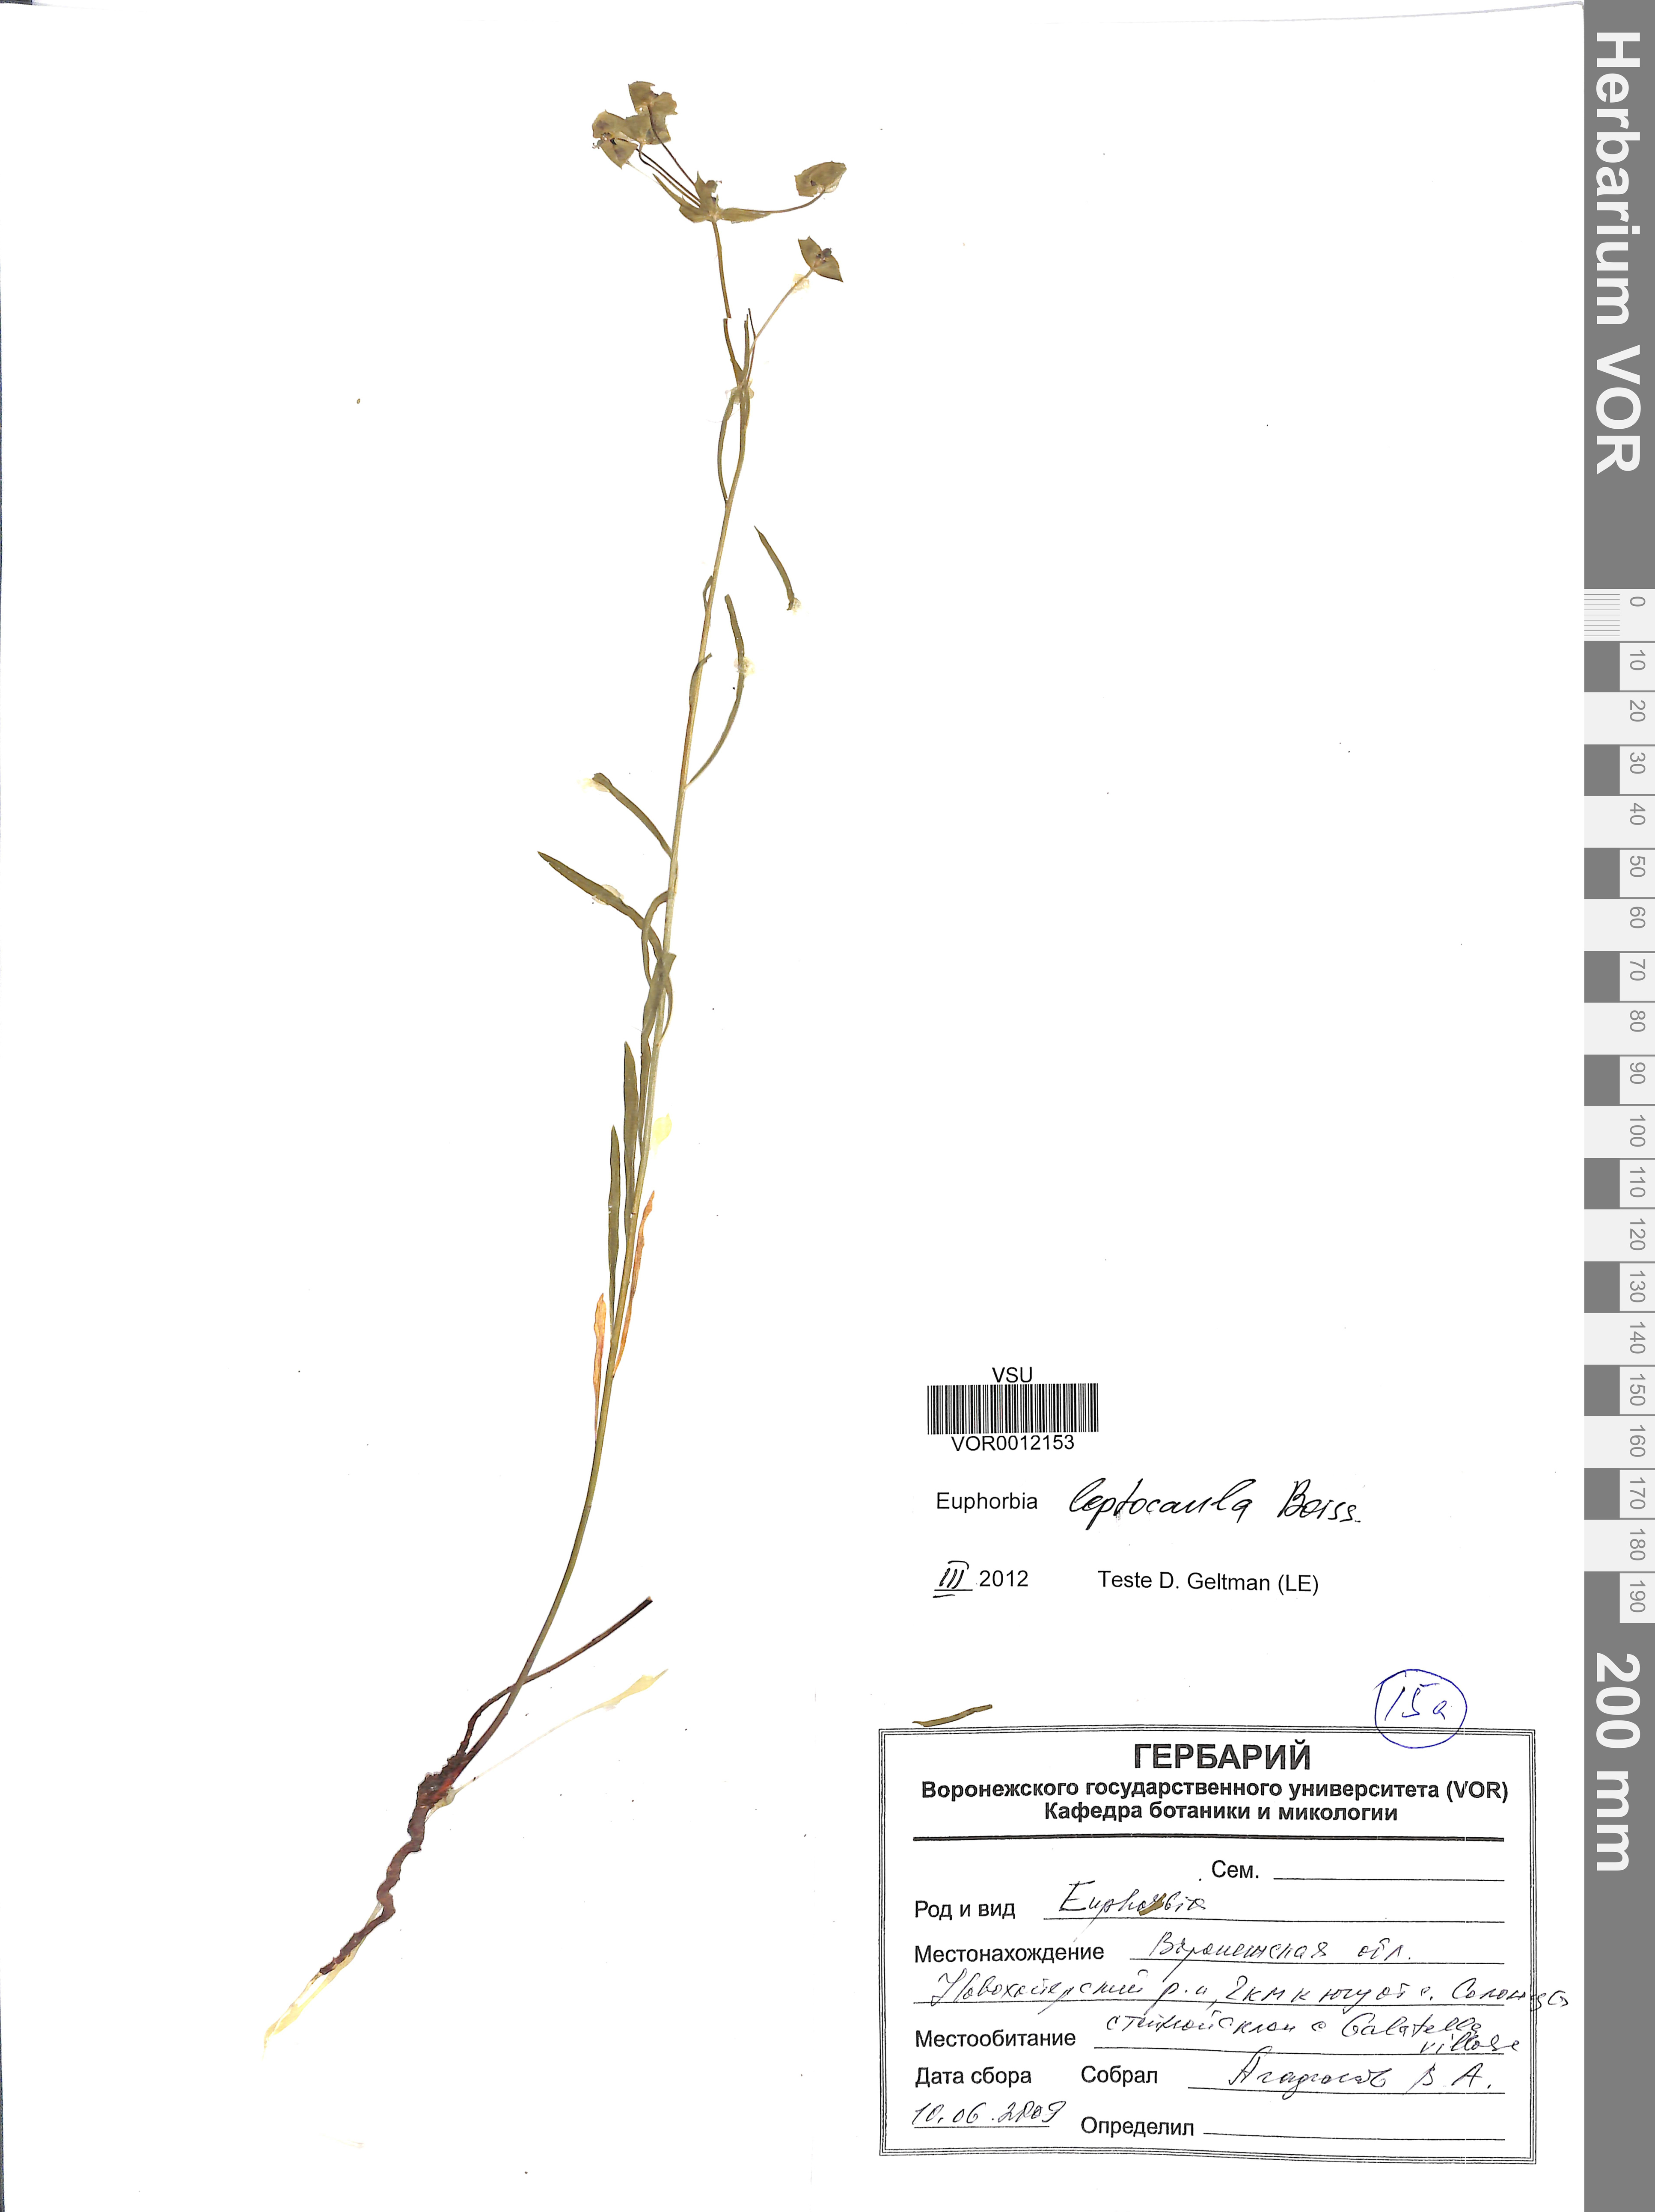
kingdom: Plantae
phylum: Tracheophyta
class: Magnoliopsida
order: Malpighiales
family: Euphorbiaceae
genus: Euphorbia
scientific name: Euphorbia leptocaula
